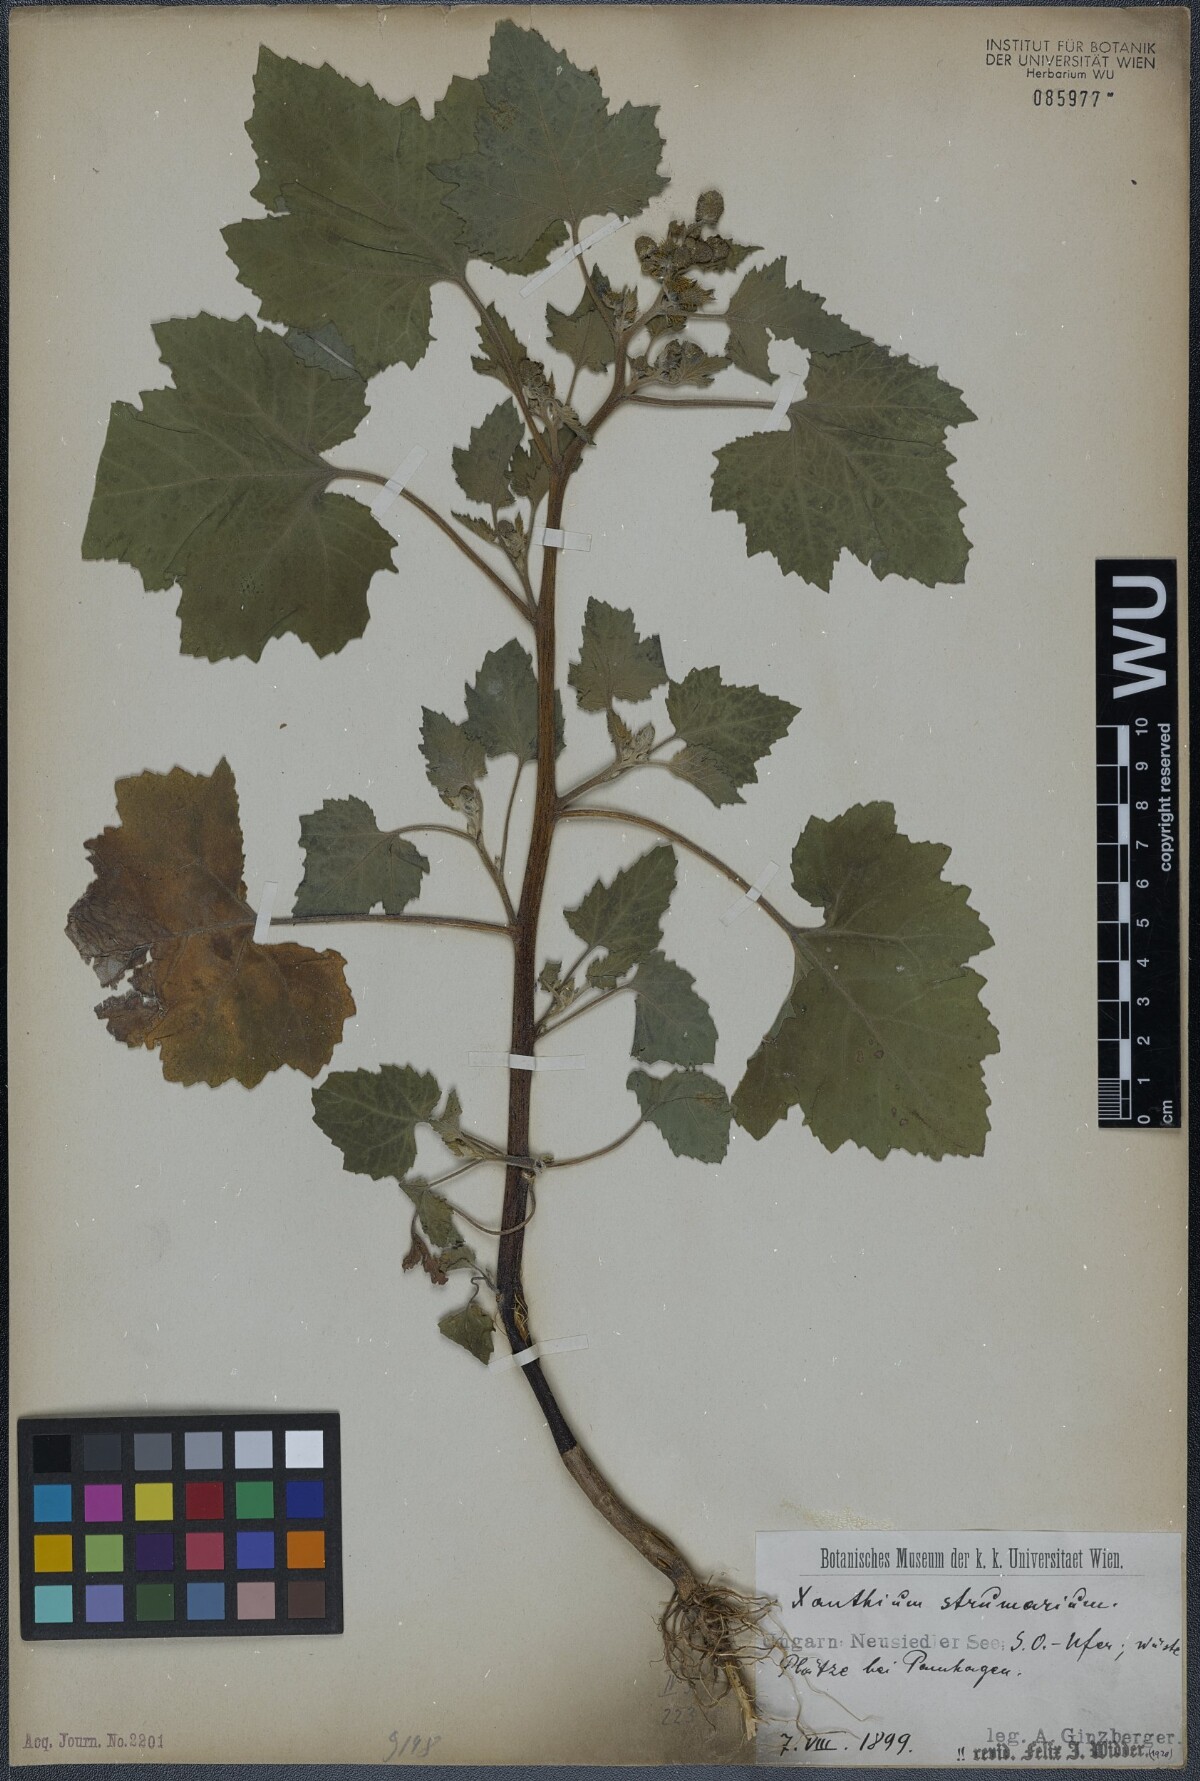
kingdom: Plantae
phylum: Tracheophyta
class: Magnoliopsida
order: Asterales
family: Asteraceae
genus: Xanthium
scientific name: Xanthium strumarium
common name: Rough cocklebur
